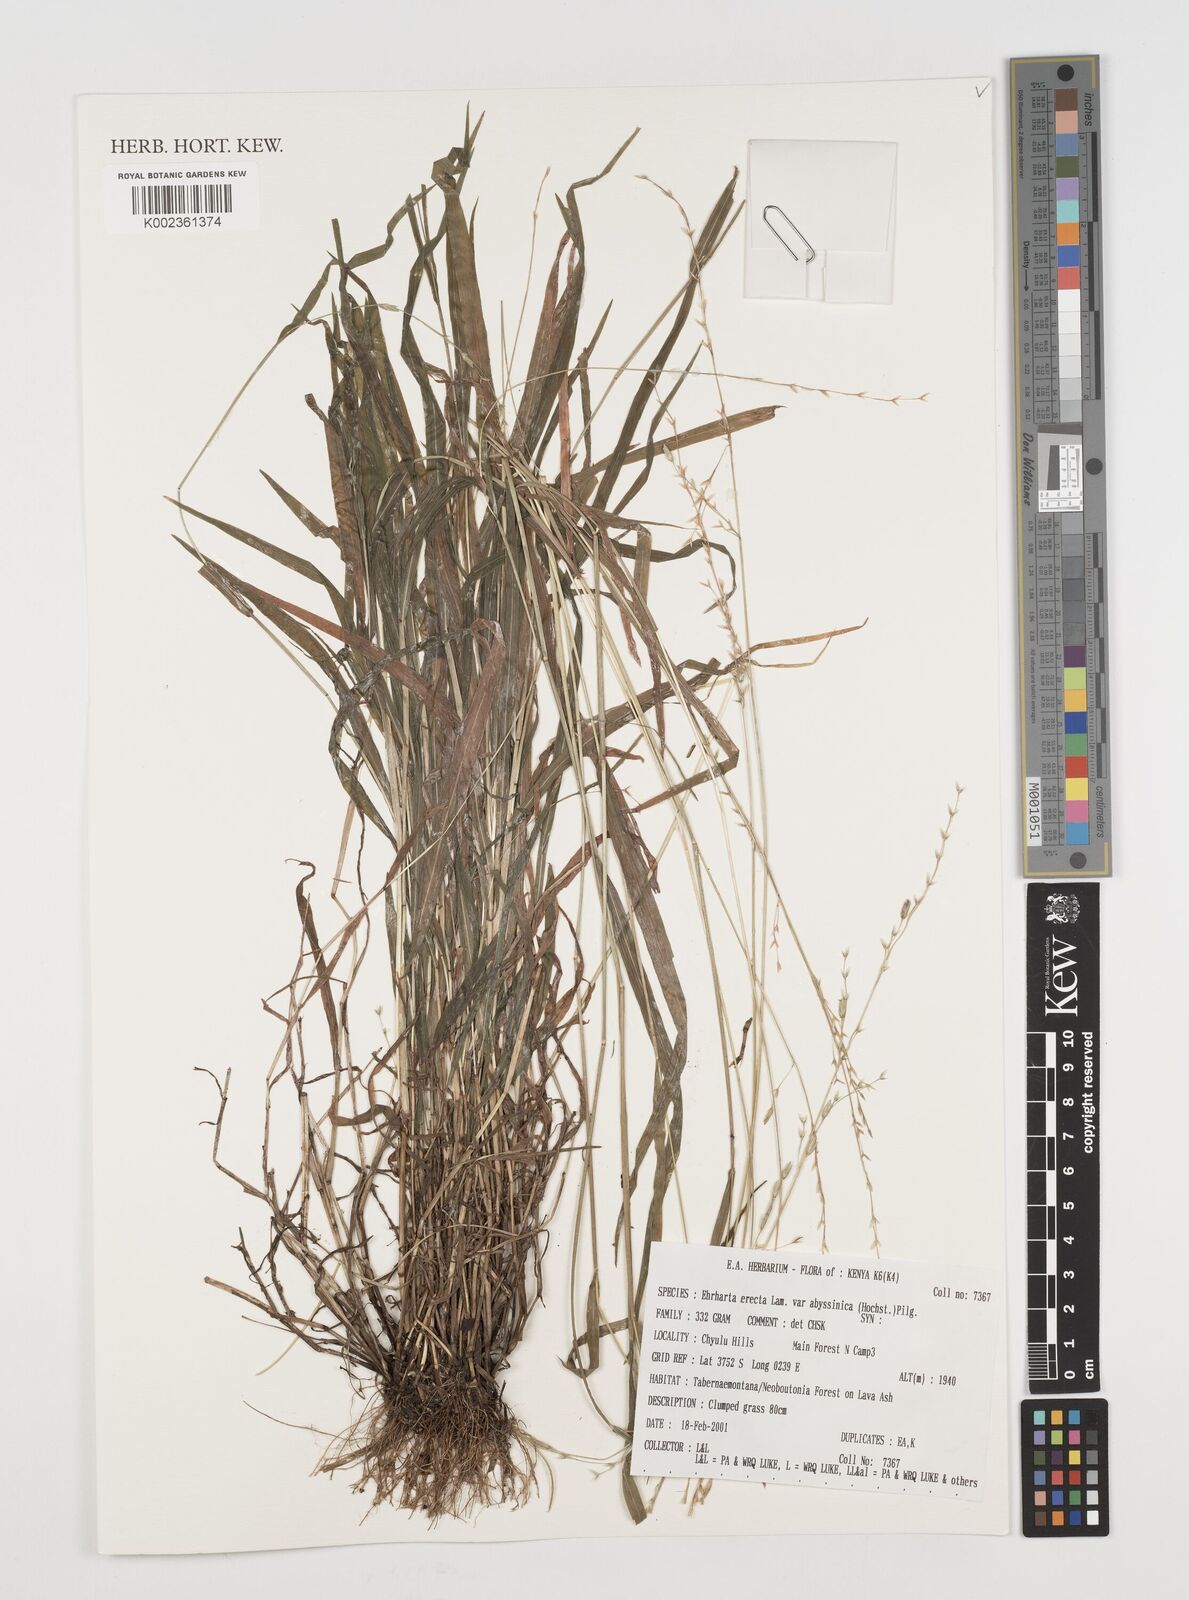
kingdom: Plantae
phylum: Tracheophyta
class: Liliopsida
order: Poales
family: Poaceae
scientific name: Poaceae
